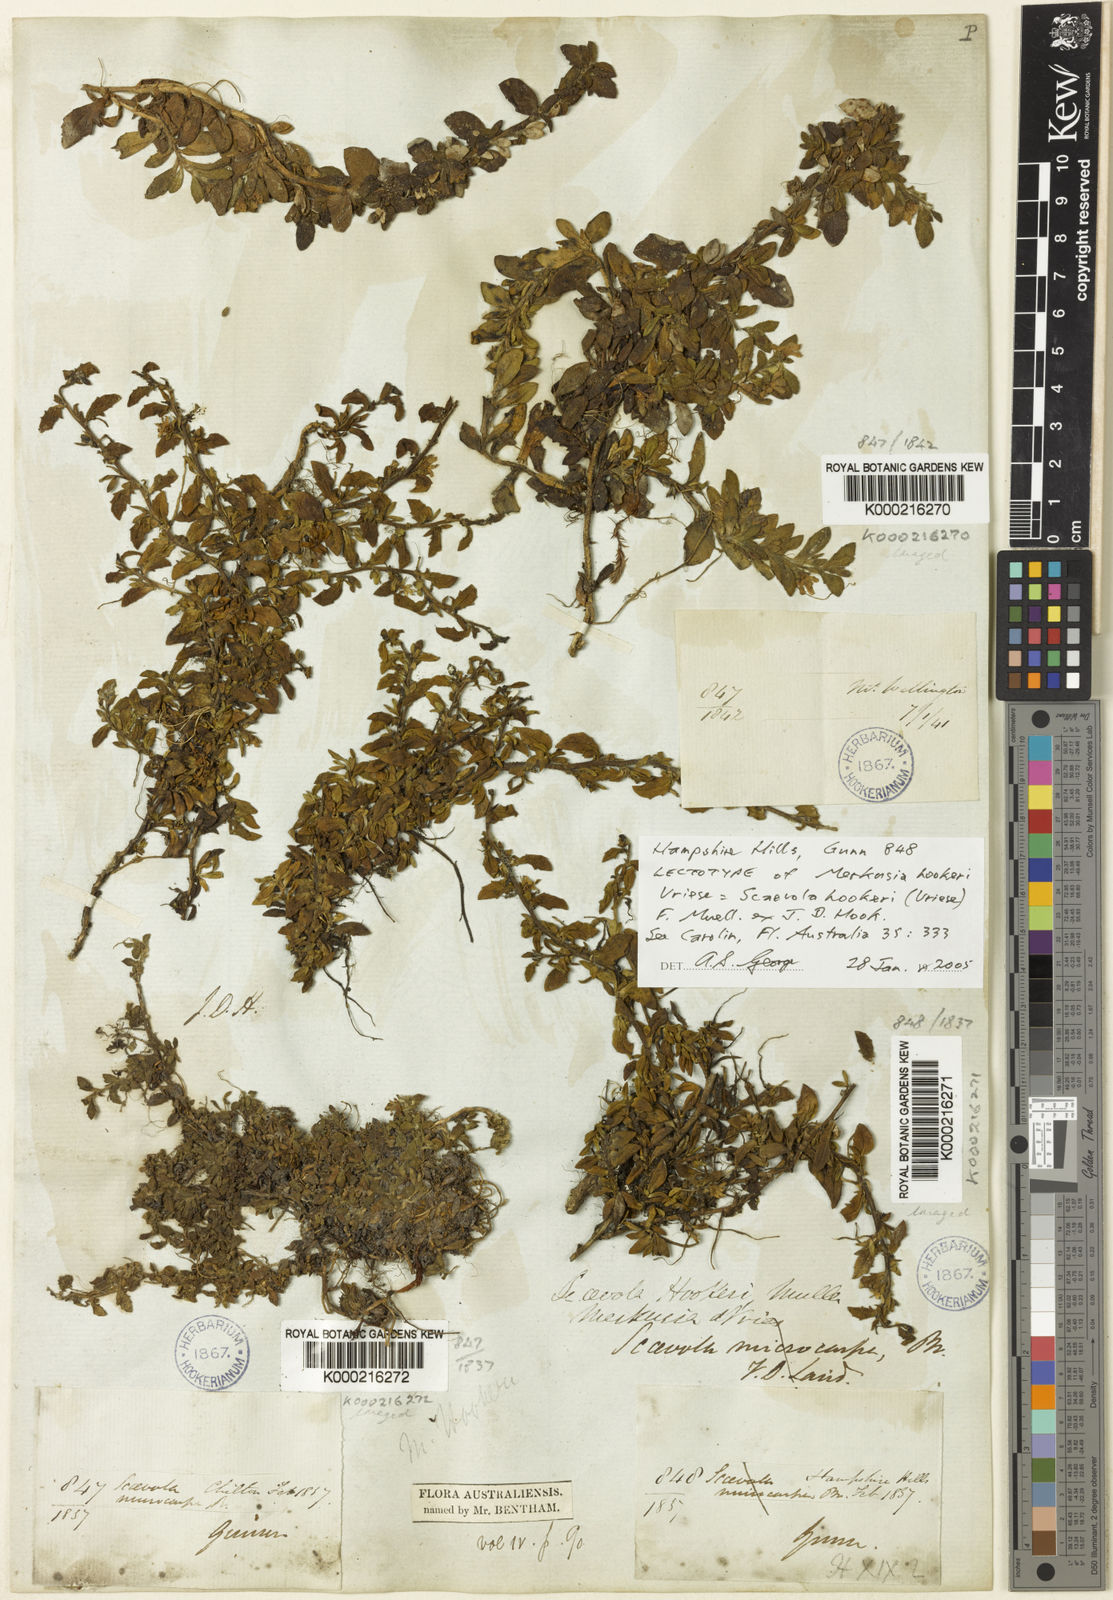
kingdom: Plantae
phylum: Tracheophyta
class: Magnoliopsida
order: Asterales
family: Goodeniaceae
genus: Scaevola
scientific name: Scaevola hookeri
